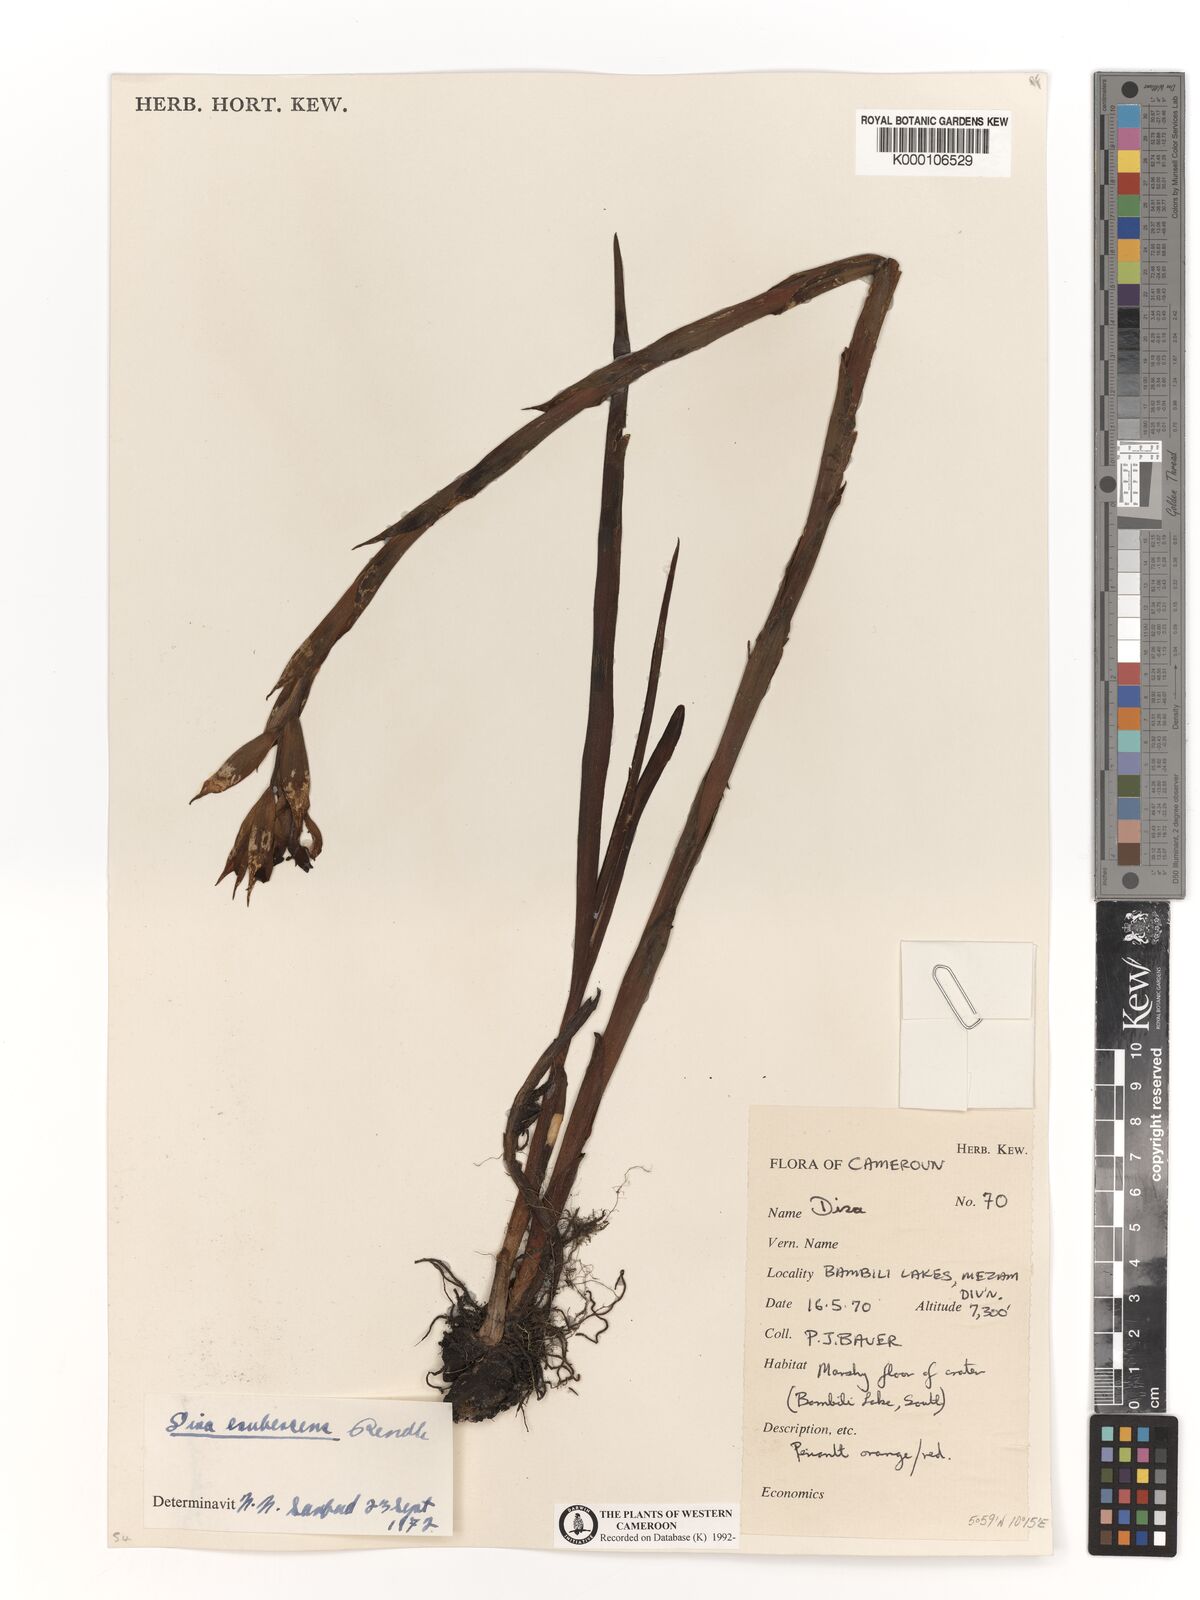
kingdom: Plantae
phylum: Tracheophyta
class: Liliopsida
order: Asparagales
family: Orchidaceae
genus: Disa
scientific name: Disa erubescens
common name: The rose disa
